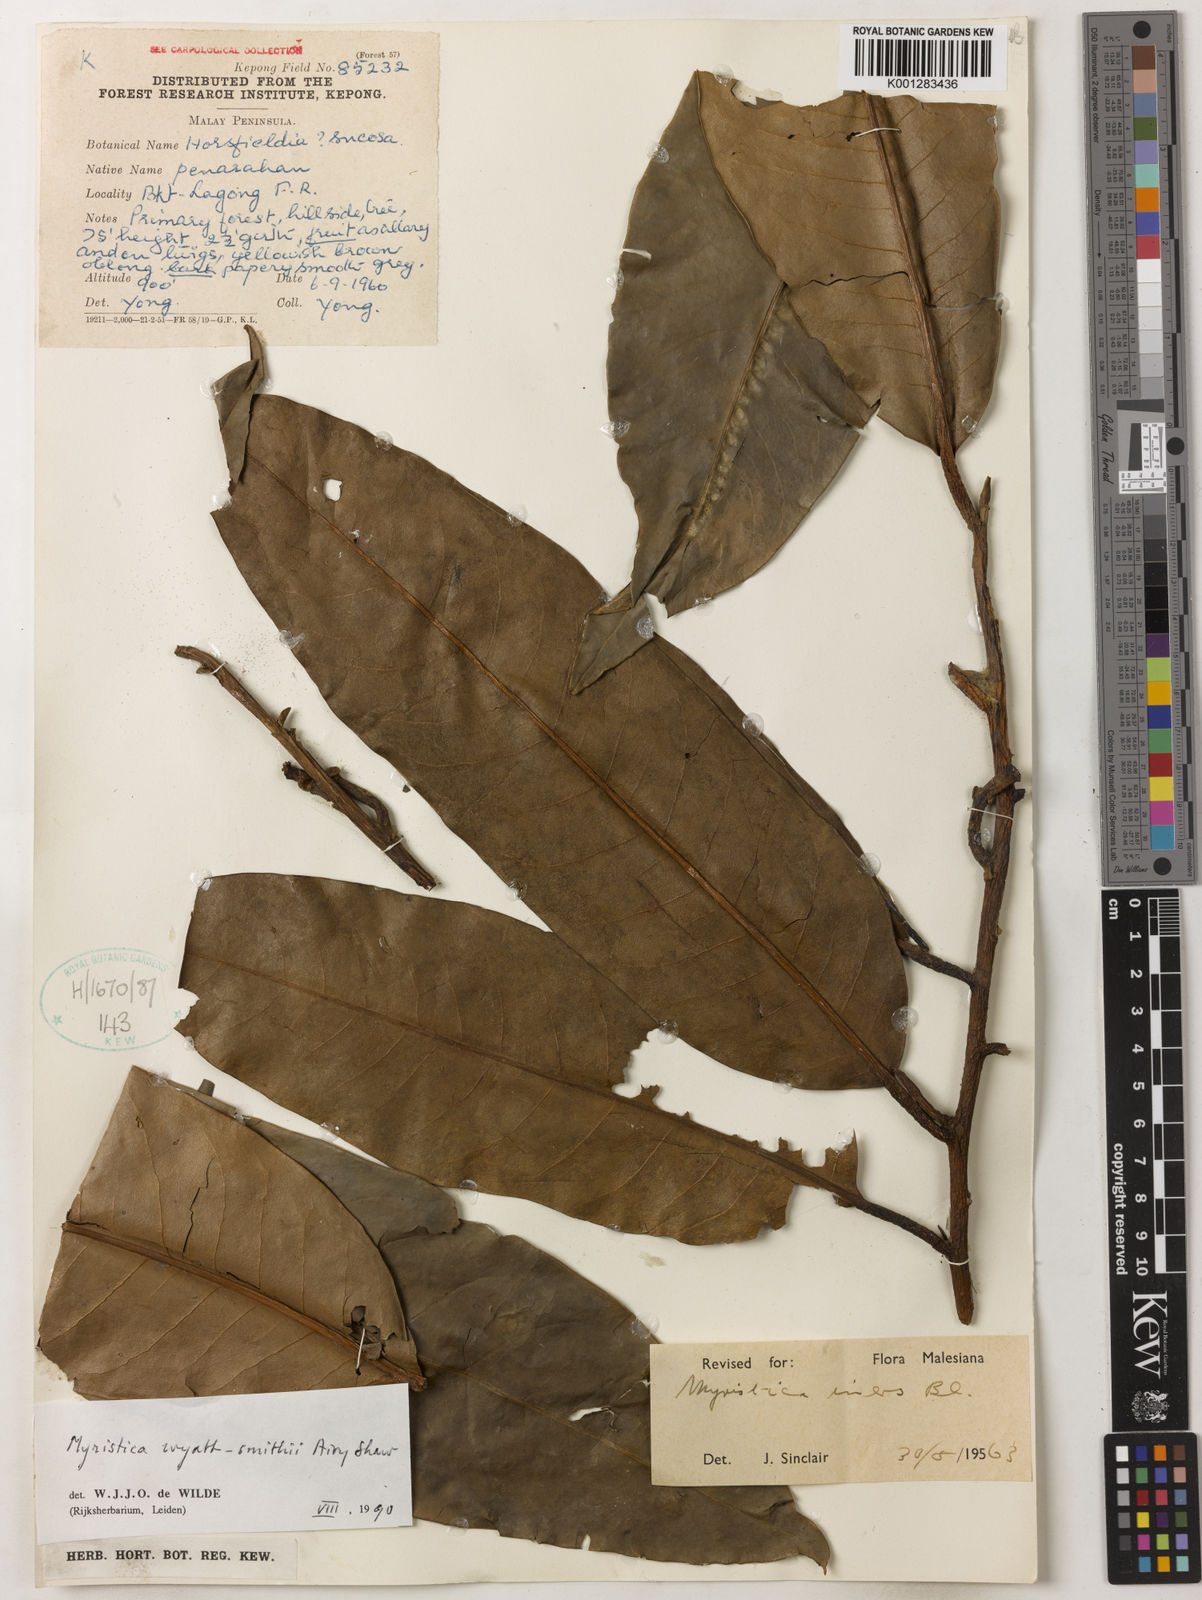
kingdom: Plantae
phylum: Tracheophyta
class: Magnoliopsida
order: Magnoliales
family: Myristicaceae
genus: Myristica
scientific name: Myristica wyatt-smithii
